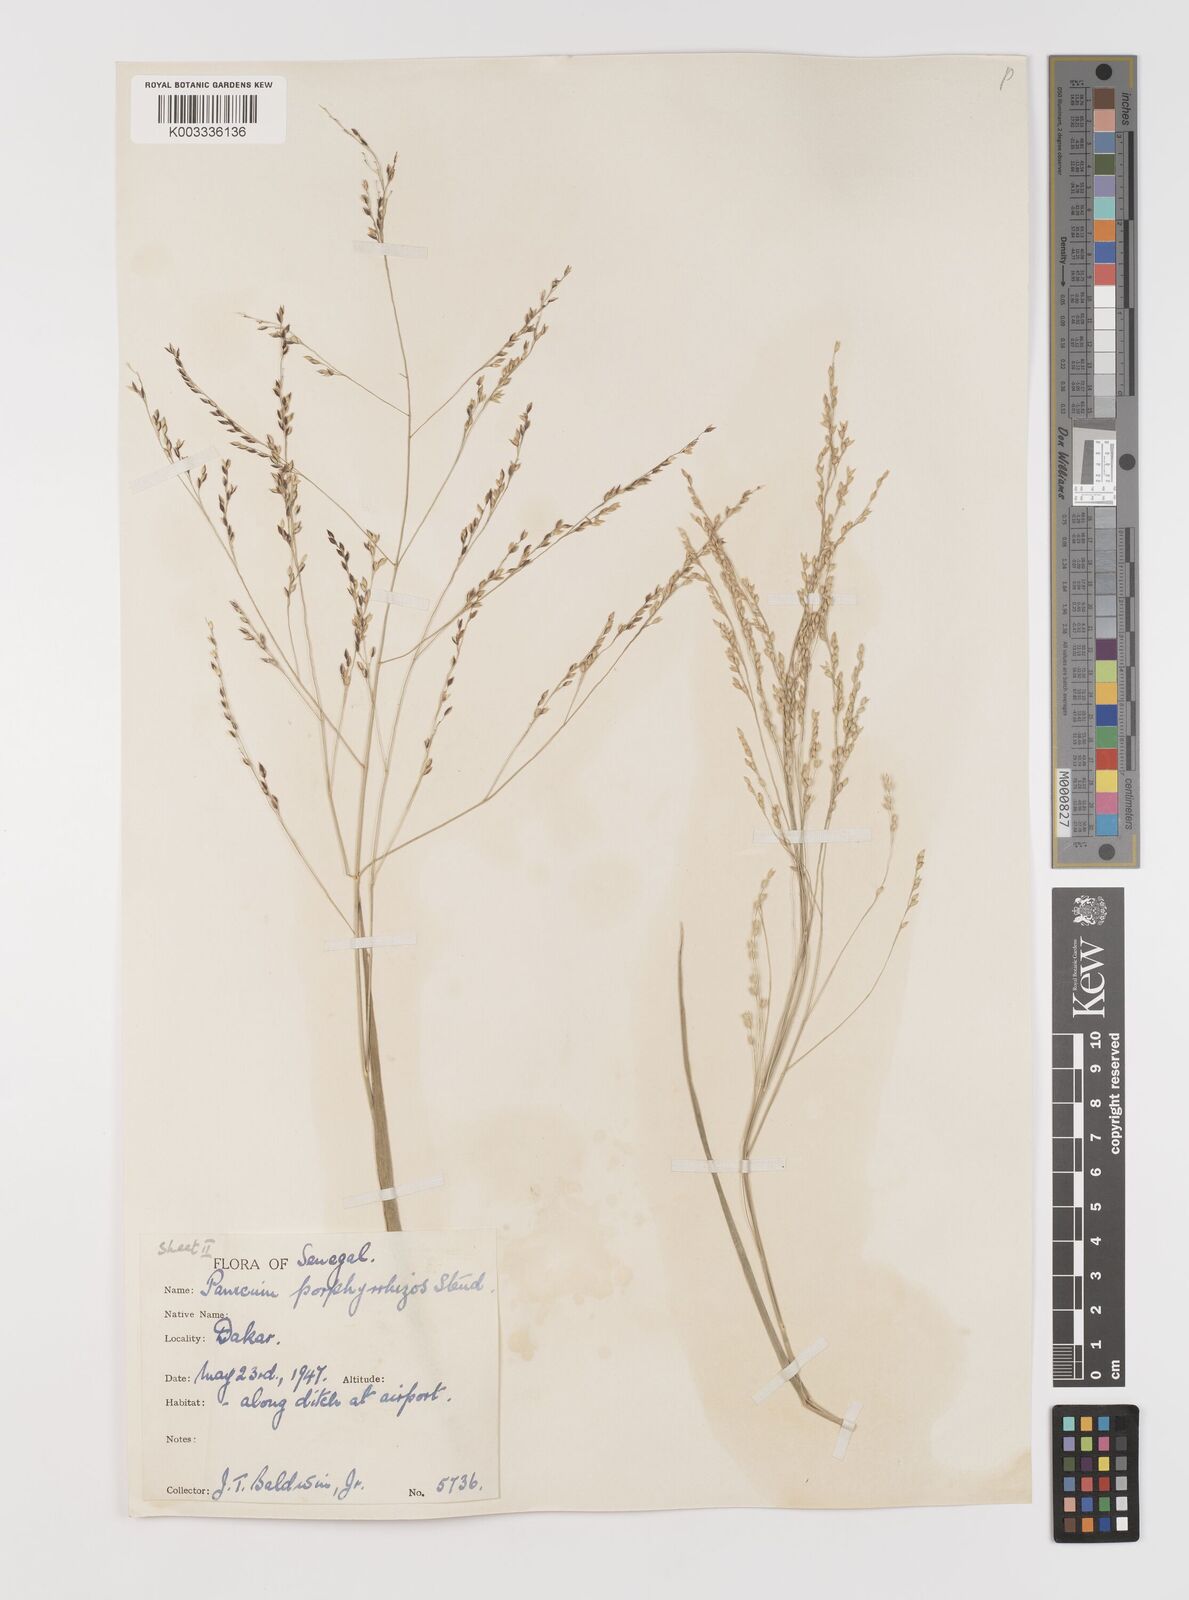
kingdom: Plantae
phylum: Tracheophyta
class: Liliopsida
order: Poales
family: Poaceae
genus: Panicum
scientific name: Panicum porphyrrhizos
